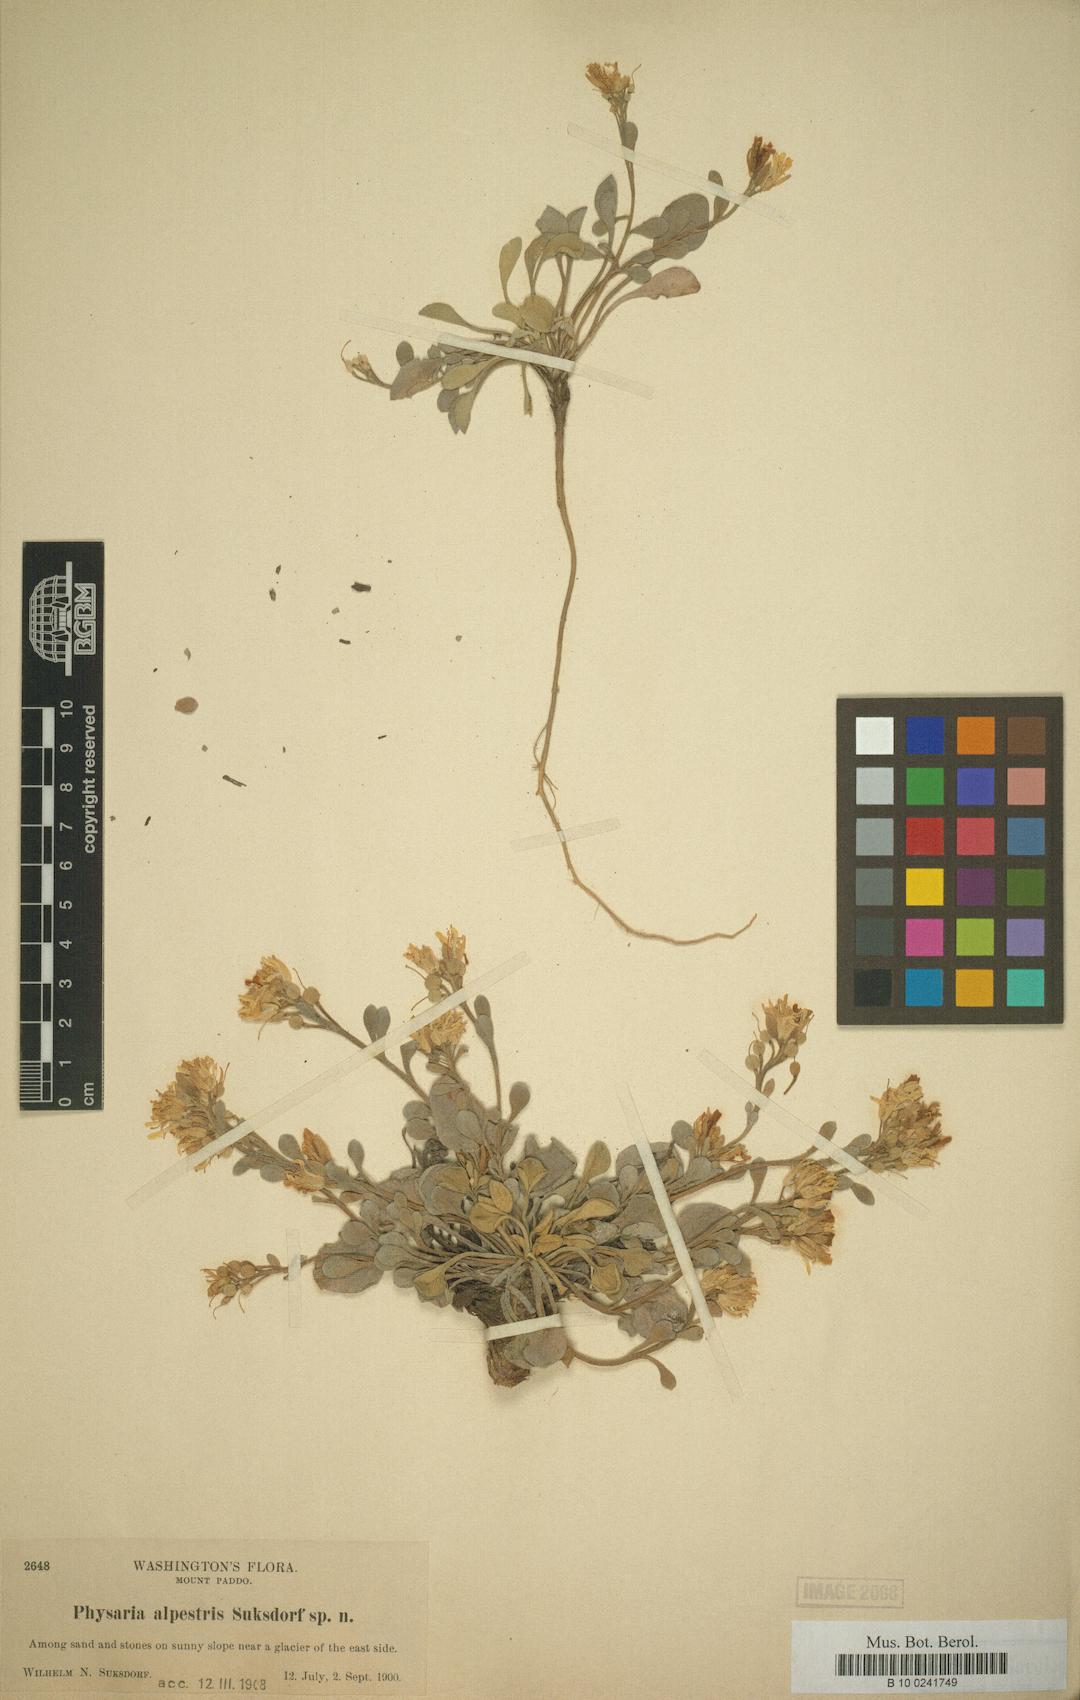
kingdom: Plantae
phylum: Tracheophyta
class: Magnoliopsida
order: Brassicales
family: Brassicaceae
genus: Physaria
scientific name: Physaria alpestris
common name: Washington twinpod
